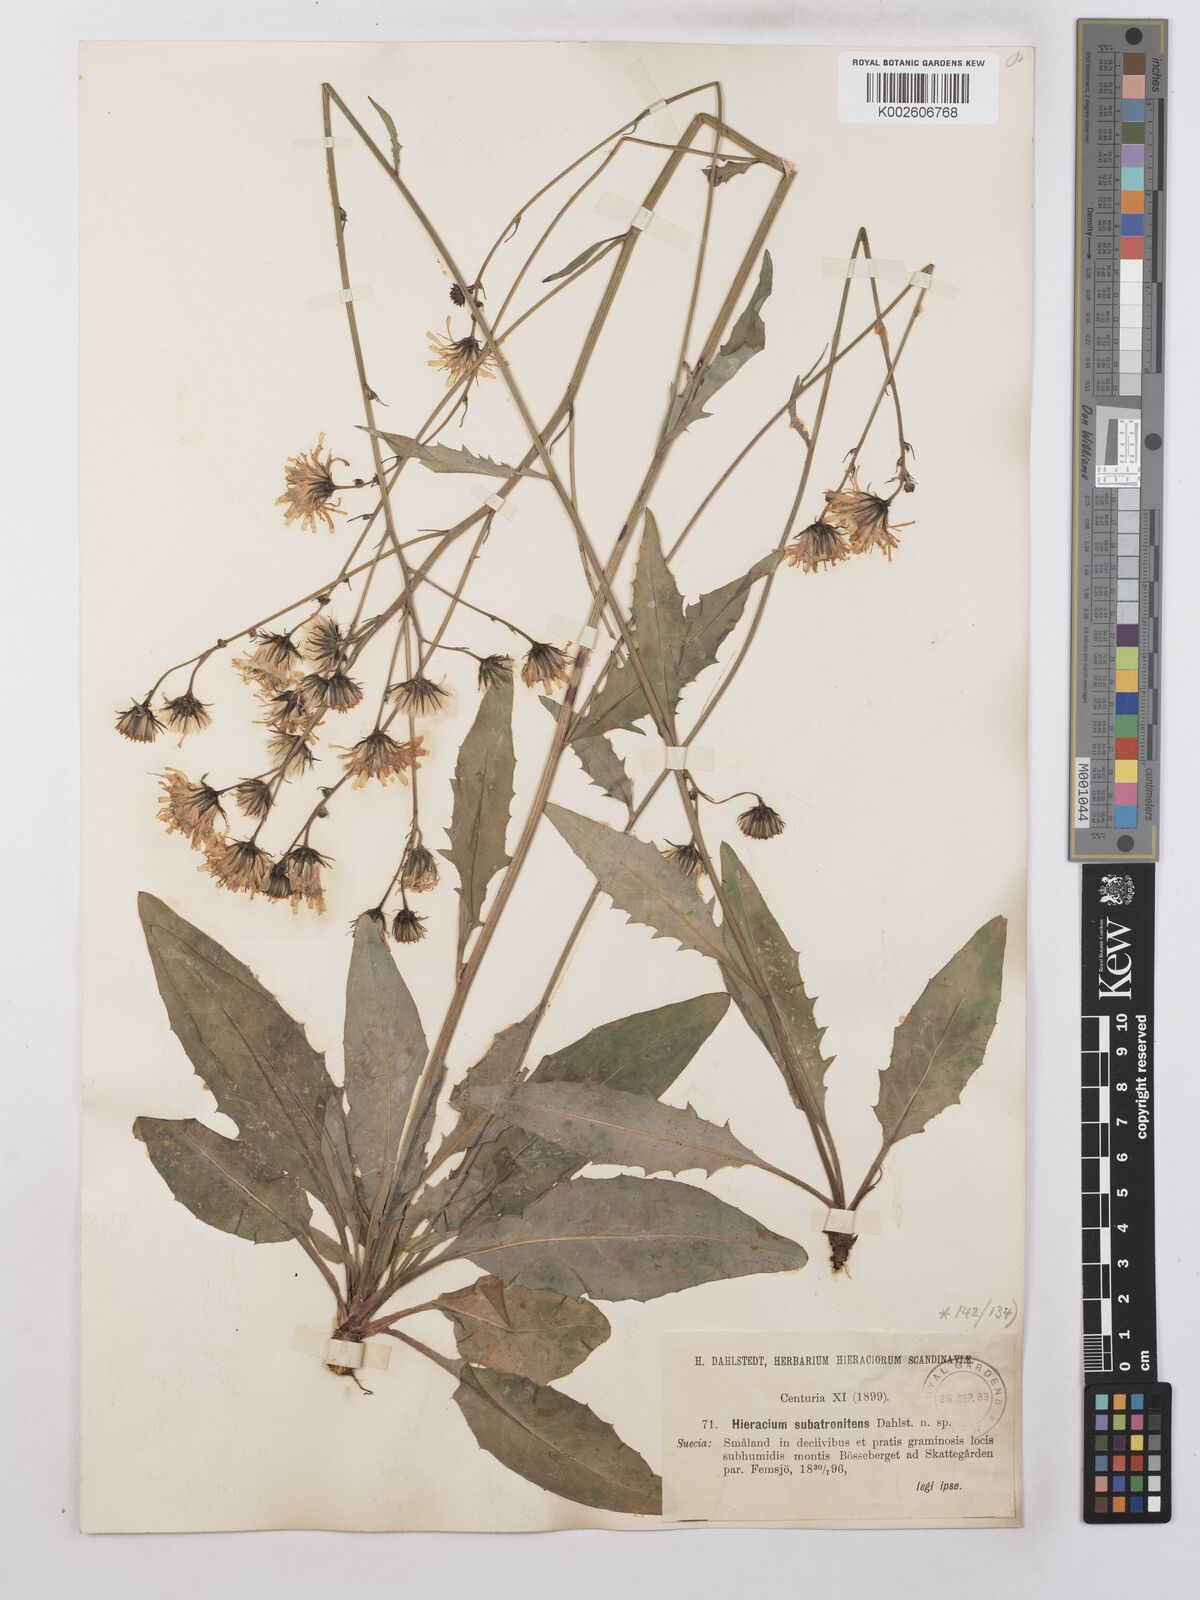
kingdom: Plantae
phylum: Tracheophyta
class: Magnoliopsida
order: Asterales
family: Asteraceae
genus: Hieracium
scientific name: Hieracium lachenalii
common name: Common hawkweed
